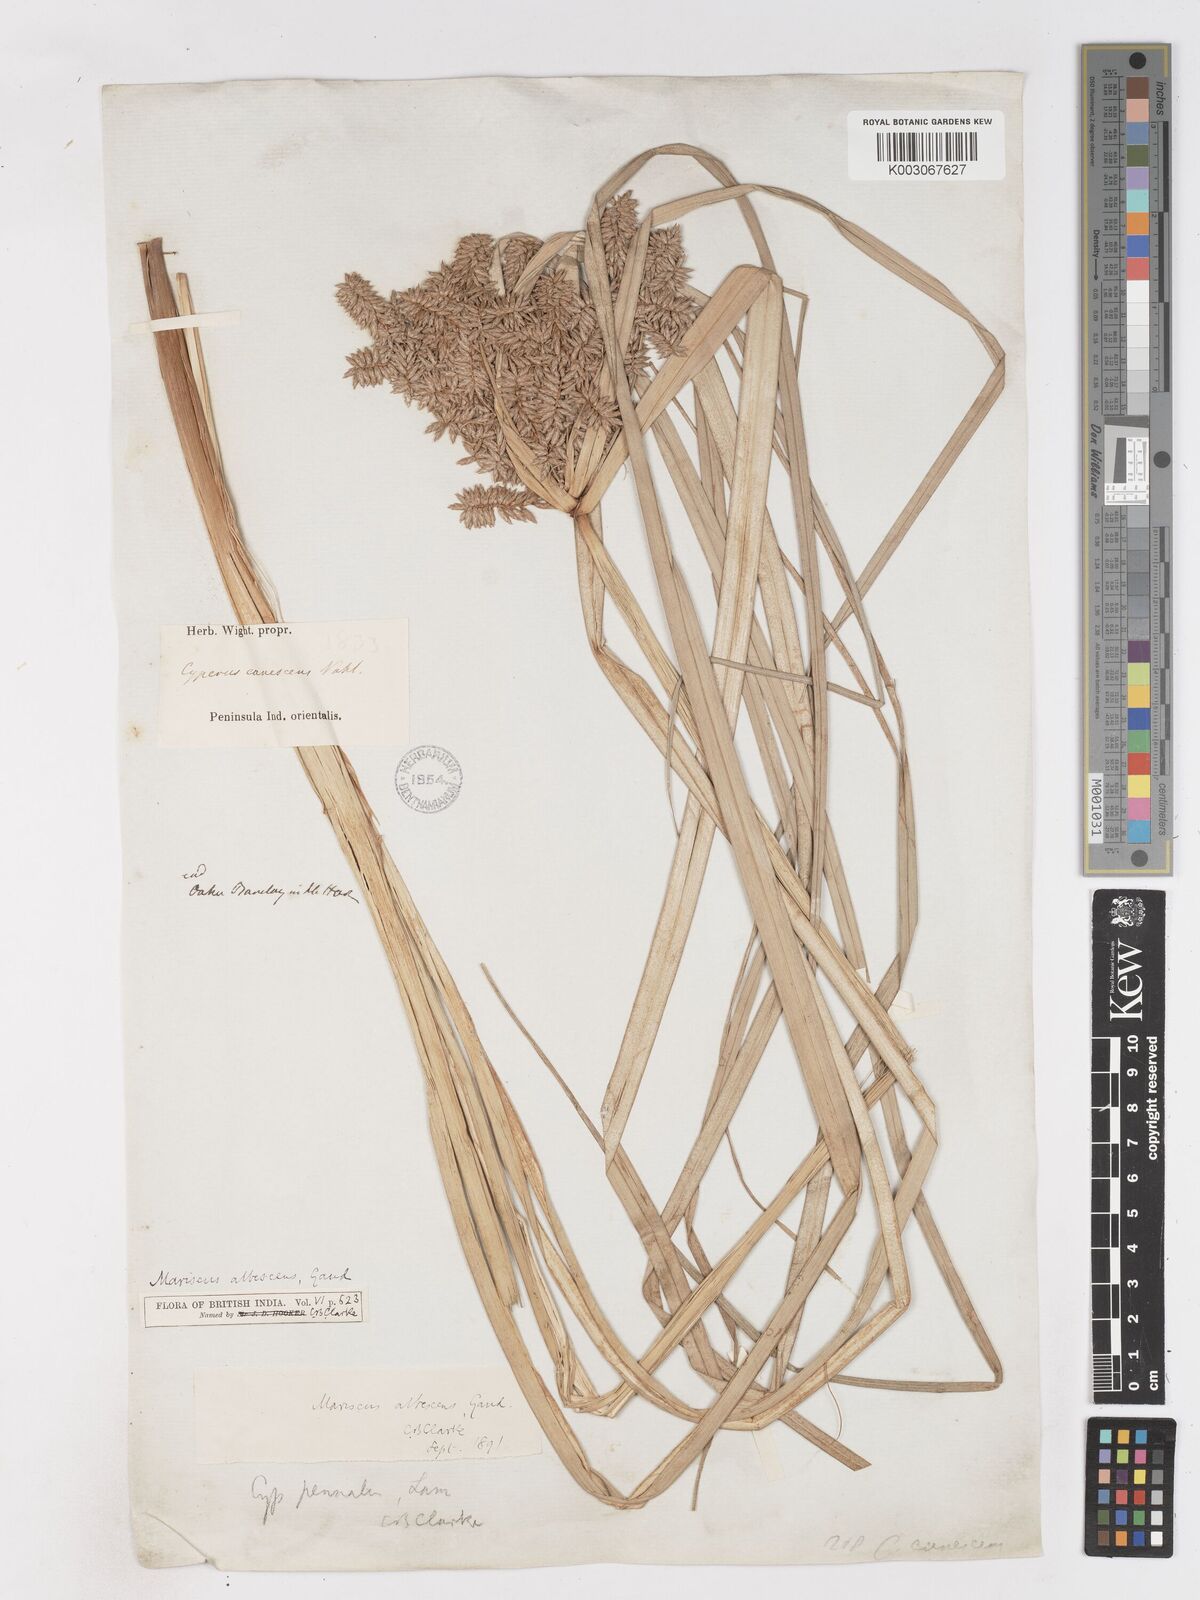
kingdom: Plantae
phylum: Tracheophyta
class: Liliopsida
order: Poales
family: Cyperaceae
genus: Cyperus
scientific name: Cyperus javanicus
